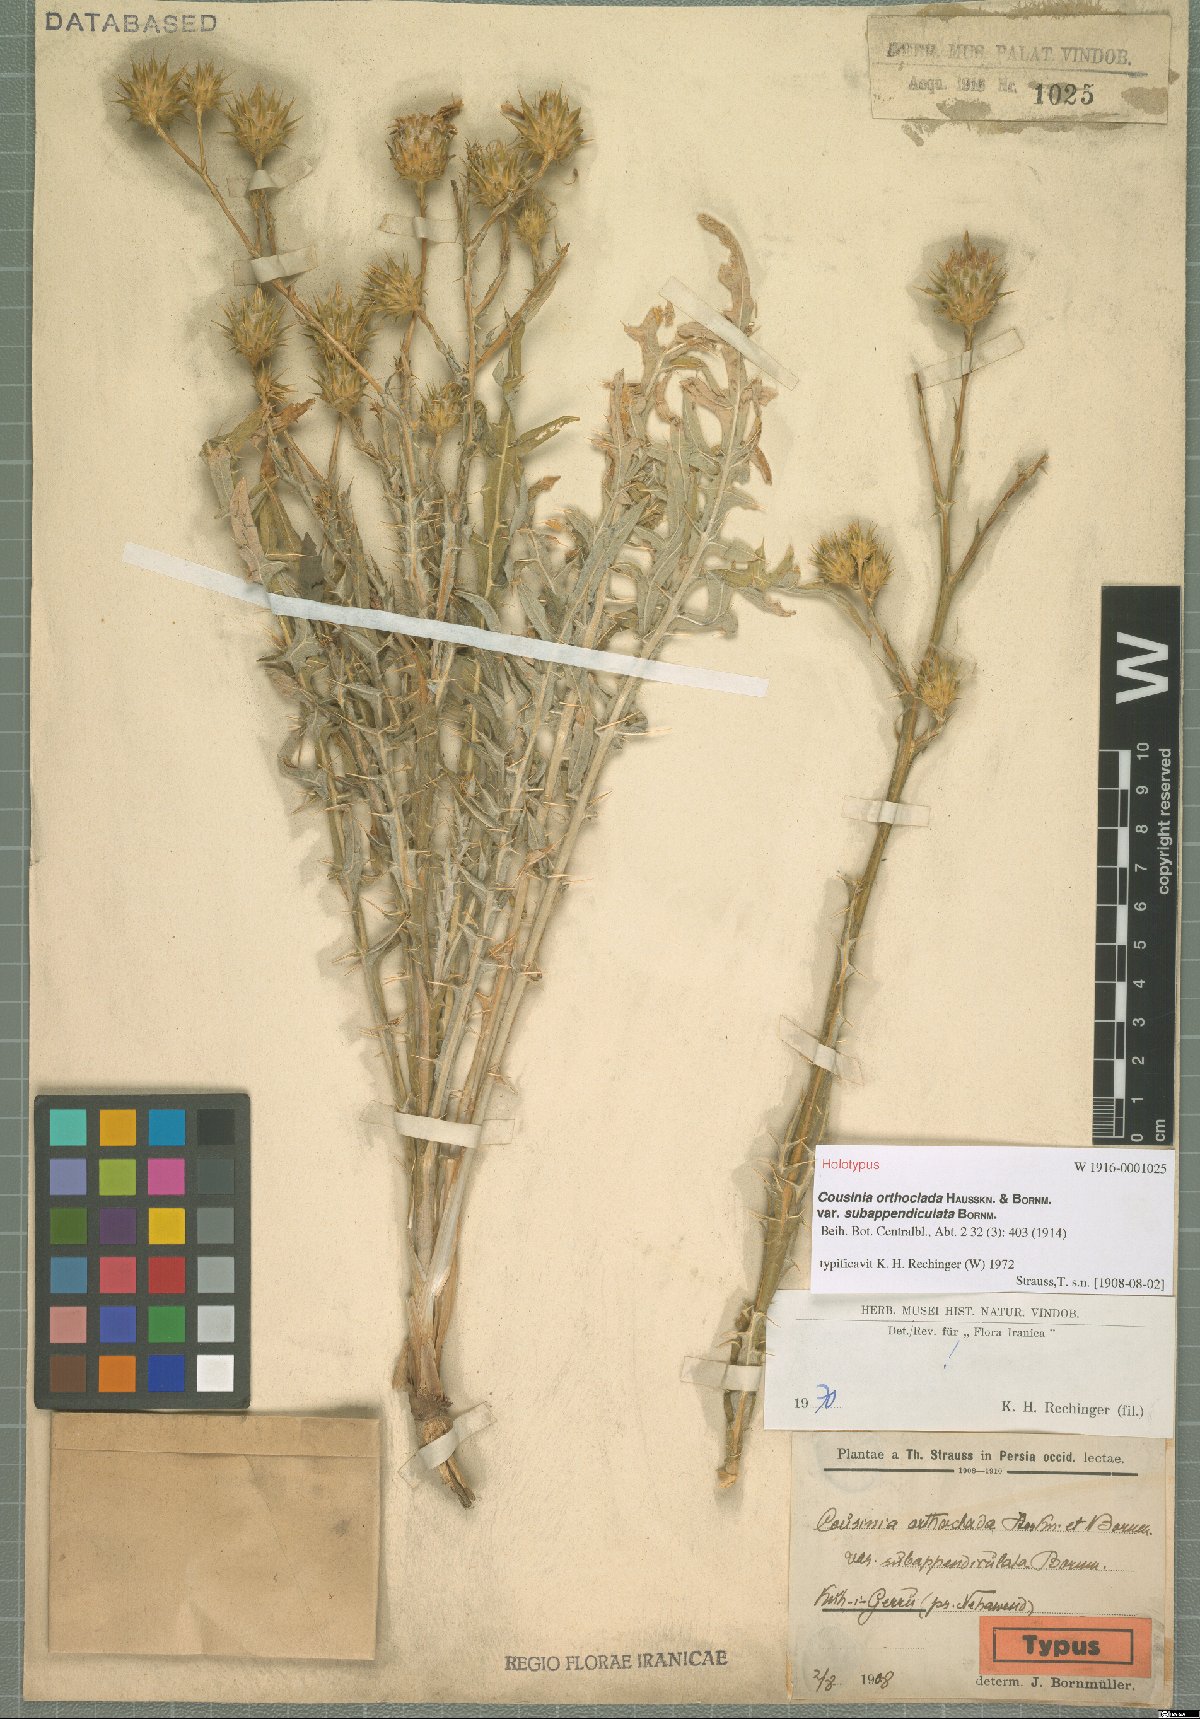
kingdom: Plantae
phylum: Tracheophyta
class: Magnoliopsida
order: Asterales
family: Asteraceae
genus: Cousinia
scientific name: Cousinia orthoclada
